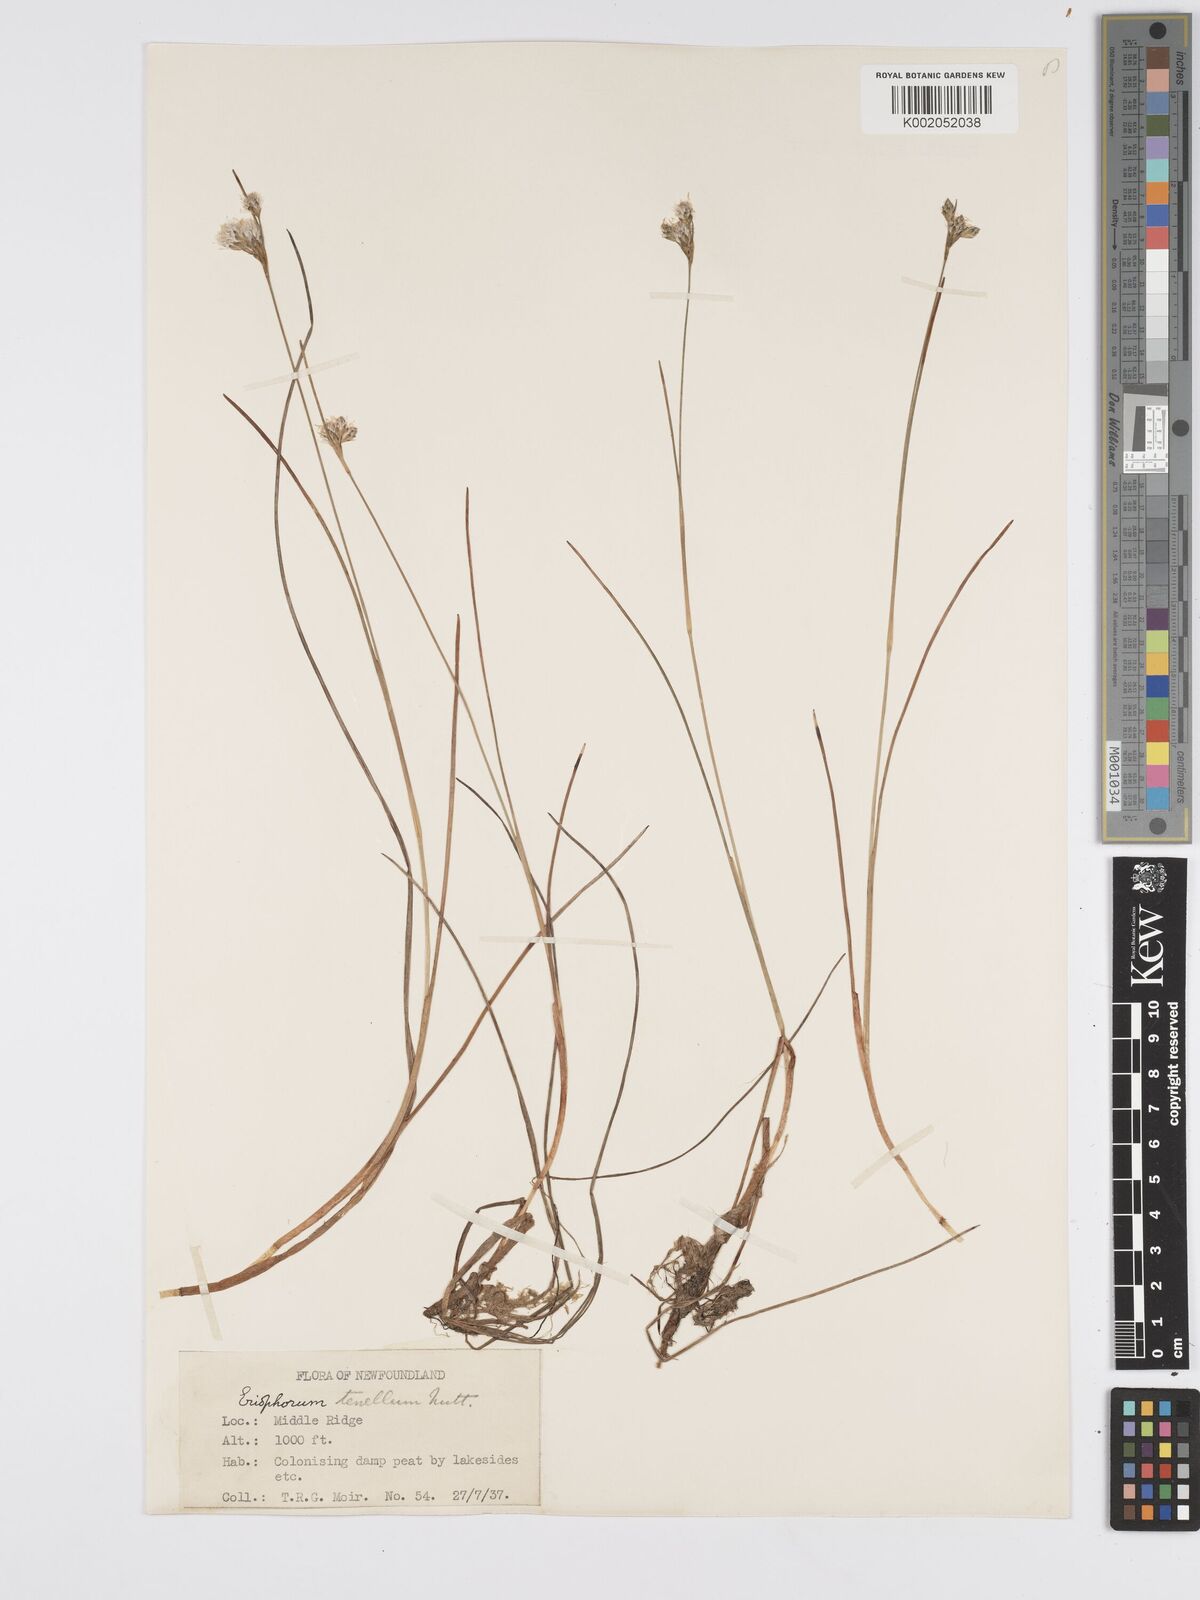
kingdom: Plantae
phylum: Tracheophyta
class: Liliopsida
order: Poales
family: Cyperaceae
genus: Eriophorum
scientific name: Eriophorum tenellum
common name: Few-nerved cottongrass
